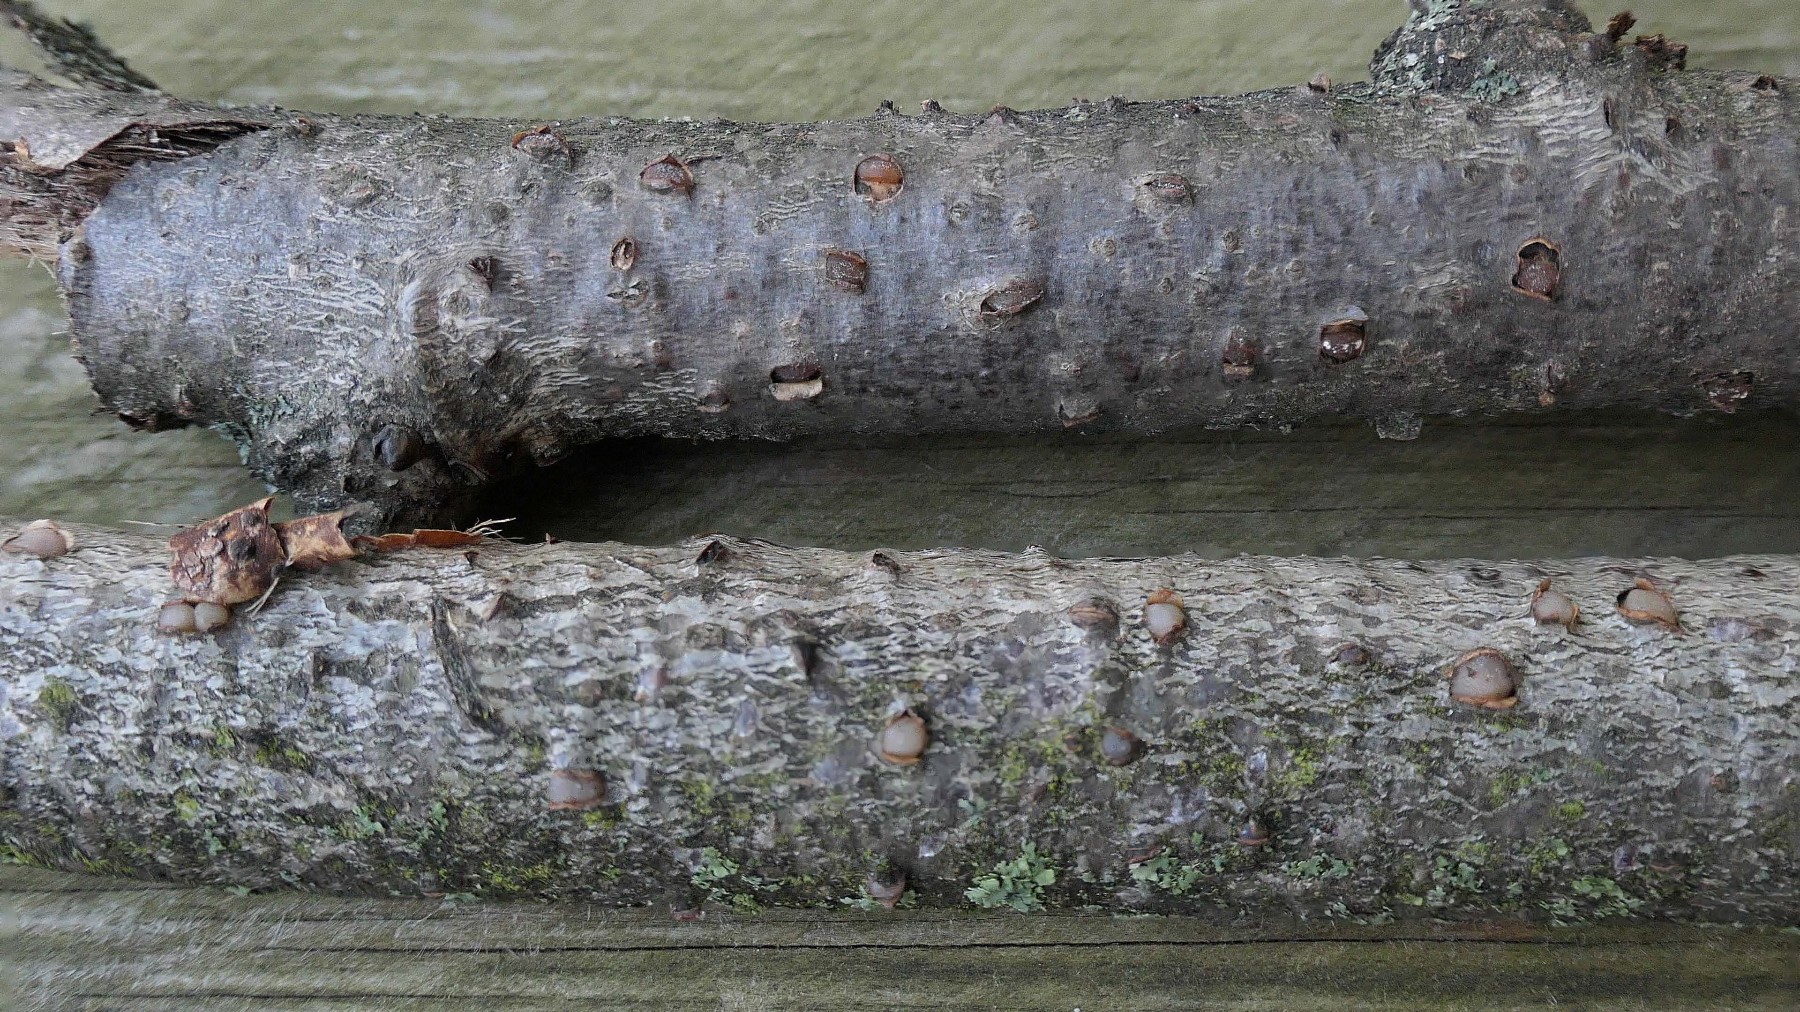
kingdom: Fungi
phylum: Basidiomycota
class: Pucciniomycetes
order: Platygloeales
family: Platygloeaceae
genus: Platygloea
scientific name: Platygloea disciformis
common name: linde-slimklat
